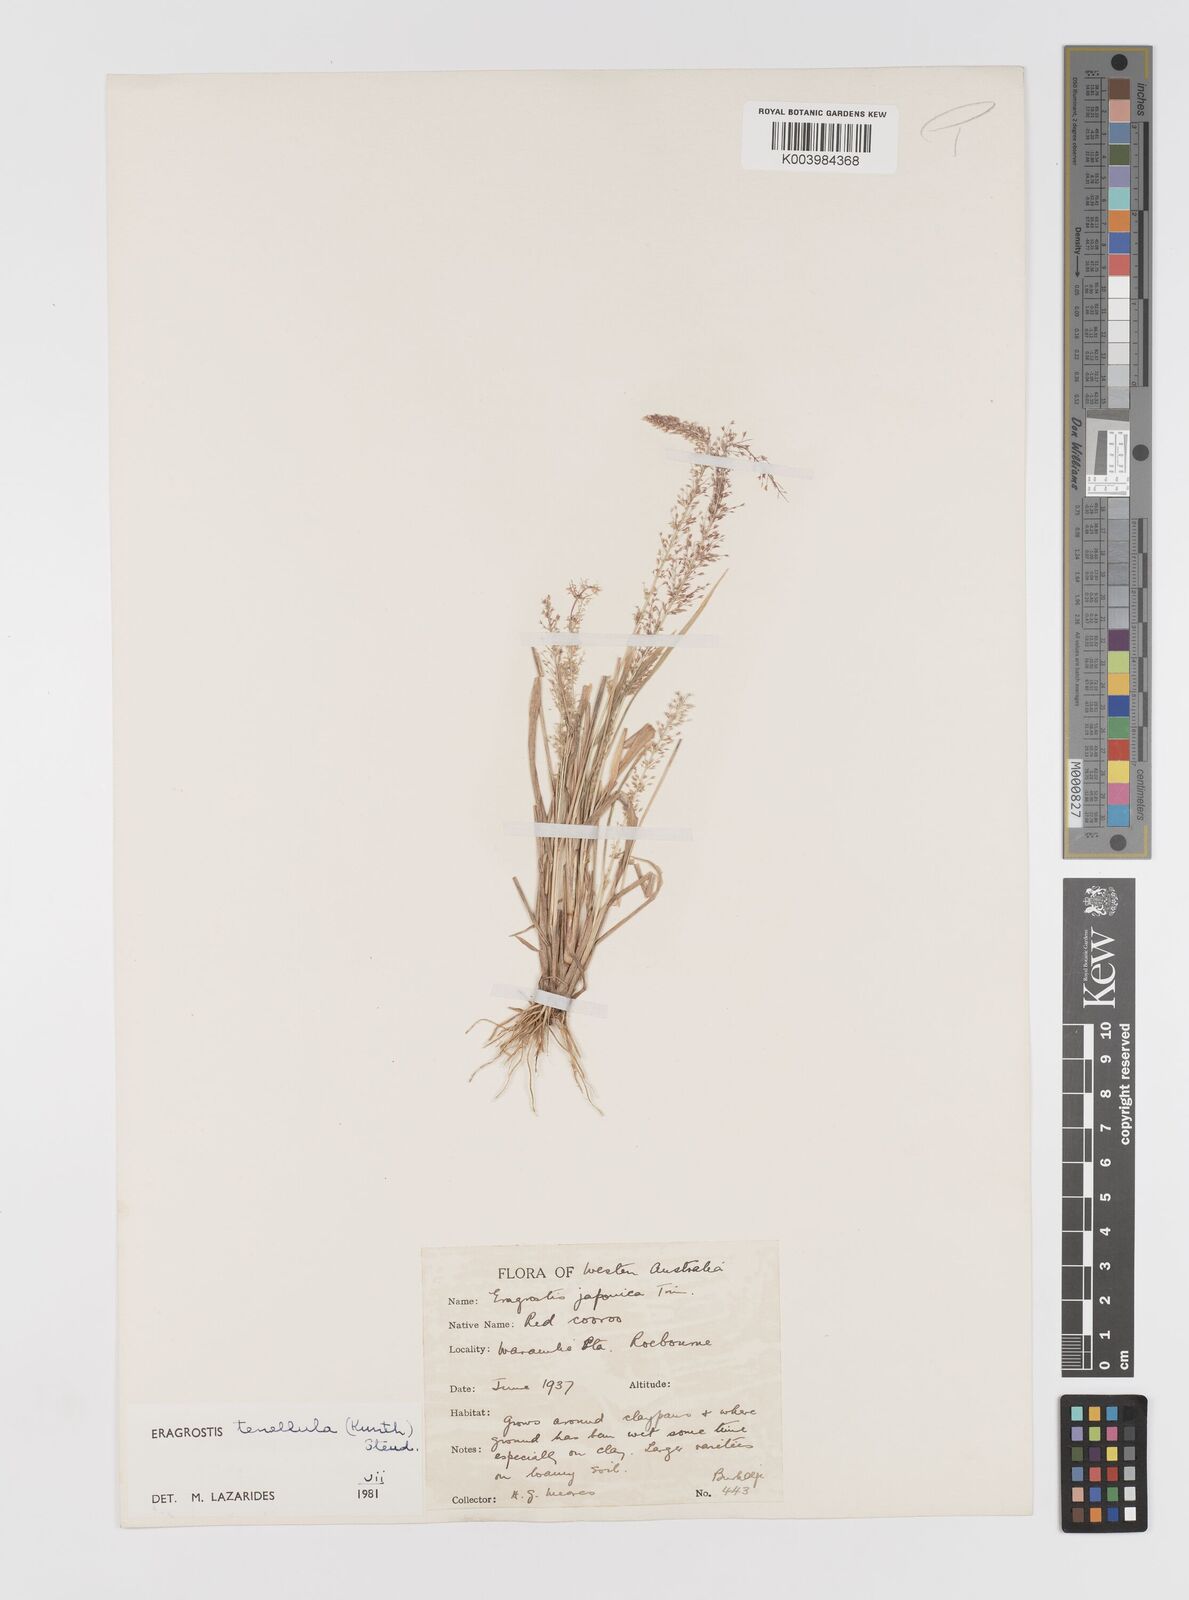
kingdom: Plantae
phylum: Tracheophyta
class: Liliopsida
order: Poales
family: Poaceae
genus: Eragrostis
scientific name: Eragrostis tenellula
